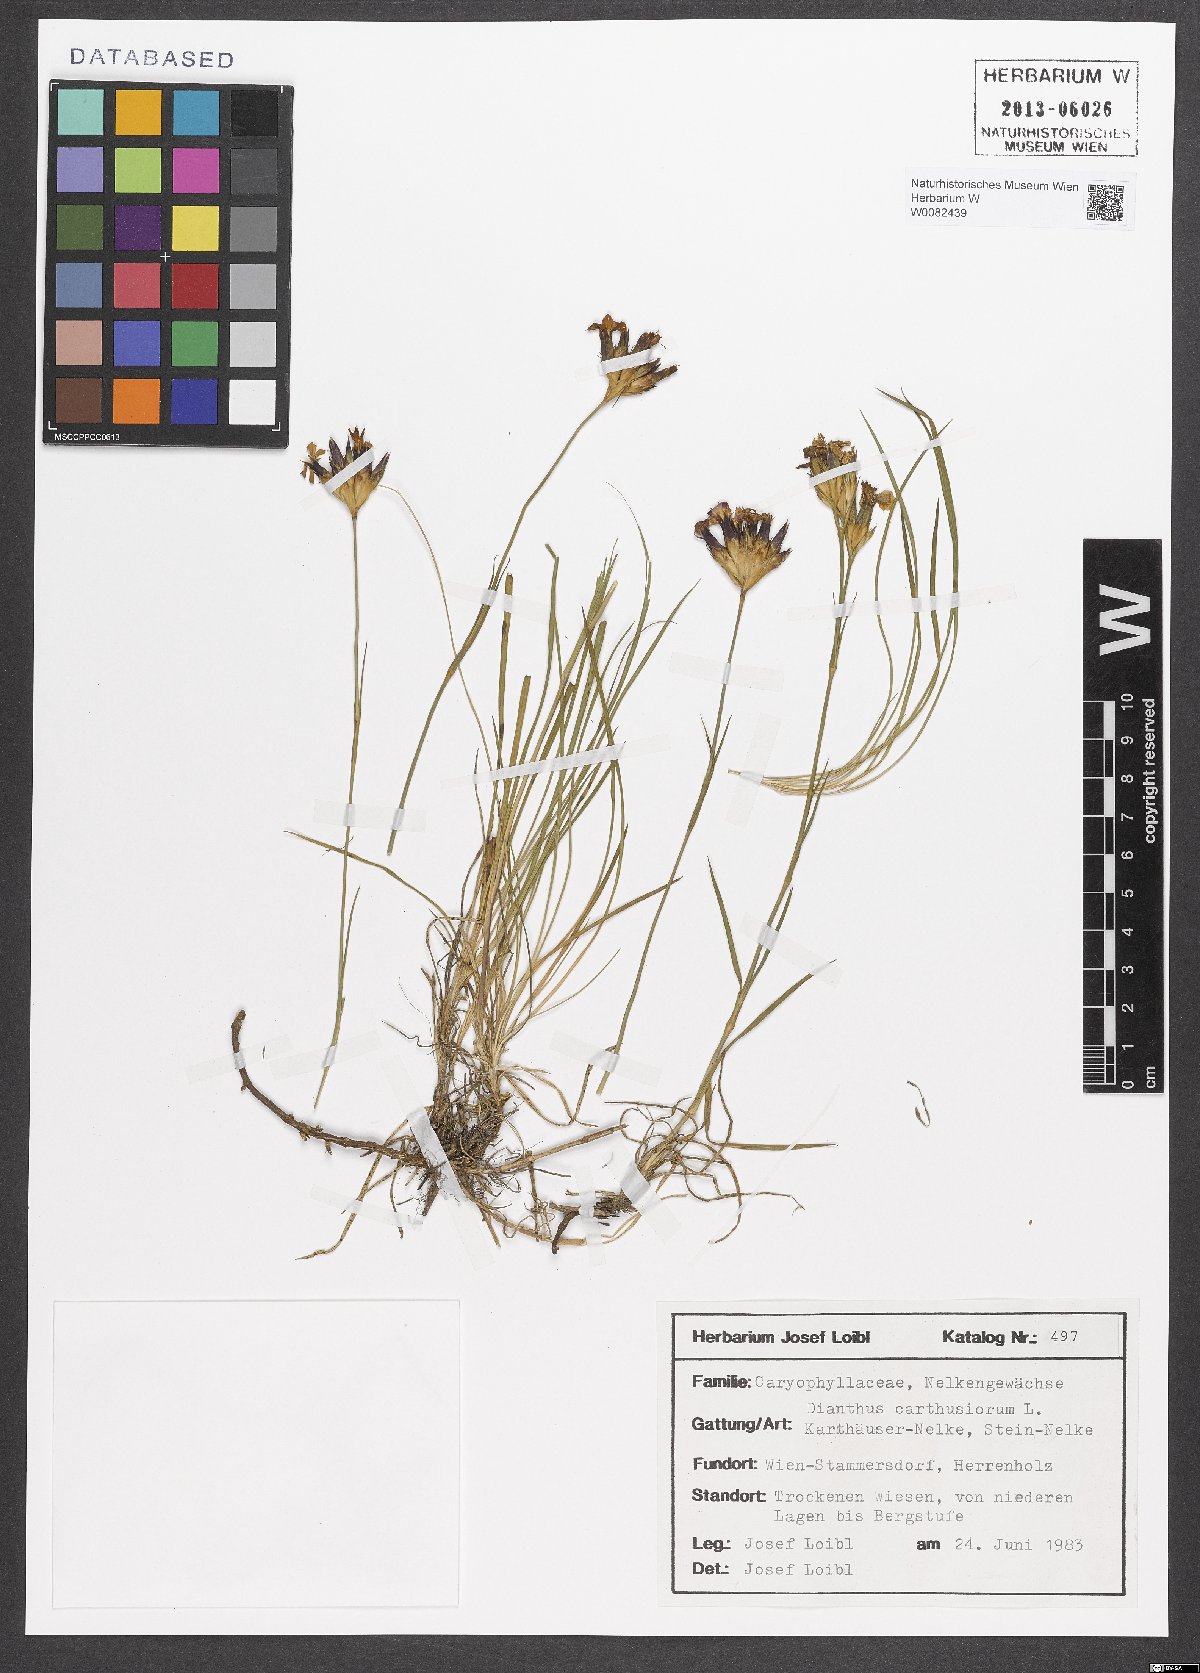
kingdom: Plantae
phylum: Tracheophyta
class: Magnoliopsida
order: Caryophyllales
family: Caryophyllaceae
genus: Dianthus
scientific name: Dianthus carthusianorum
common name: Carthusian pink
